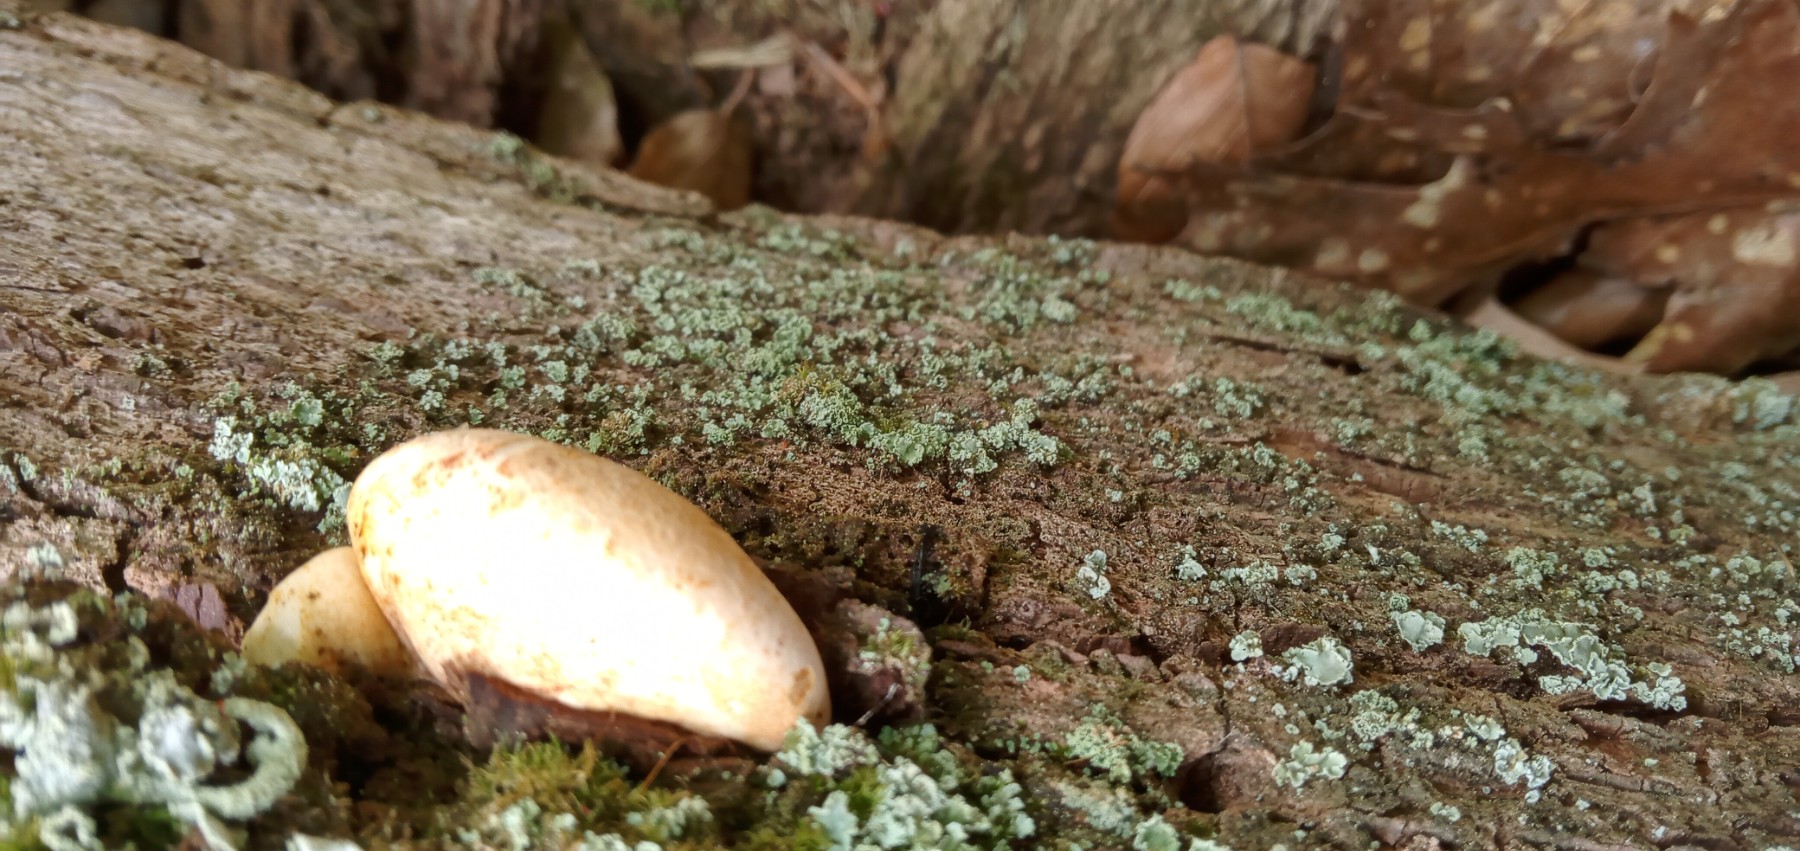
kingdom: Fungi
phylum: Basidiomycota
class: Agaricomycetes
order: Polyporales
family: Fomitopsidaceae
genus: Buglossoporus
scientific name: Buglossoporus quercinus
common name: egetunge
